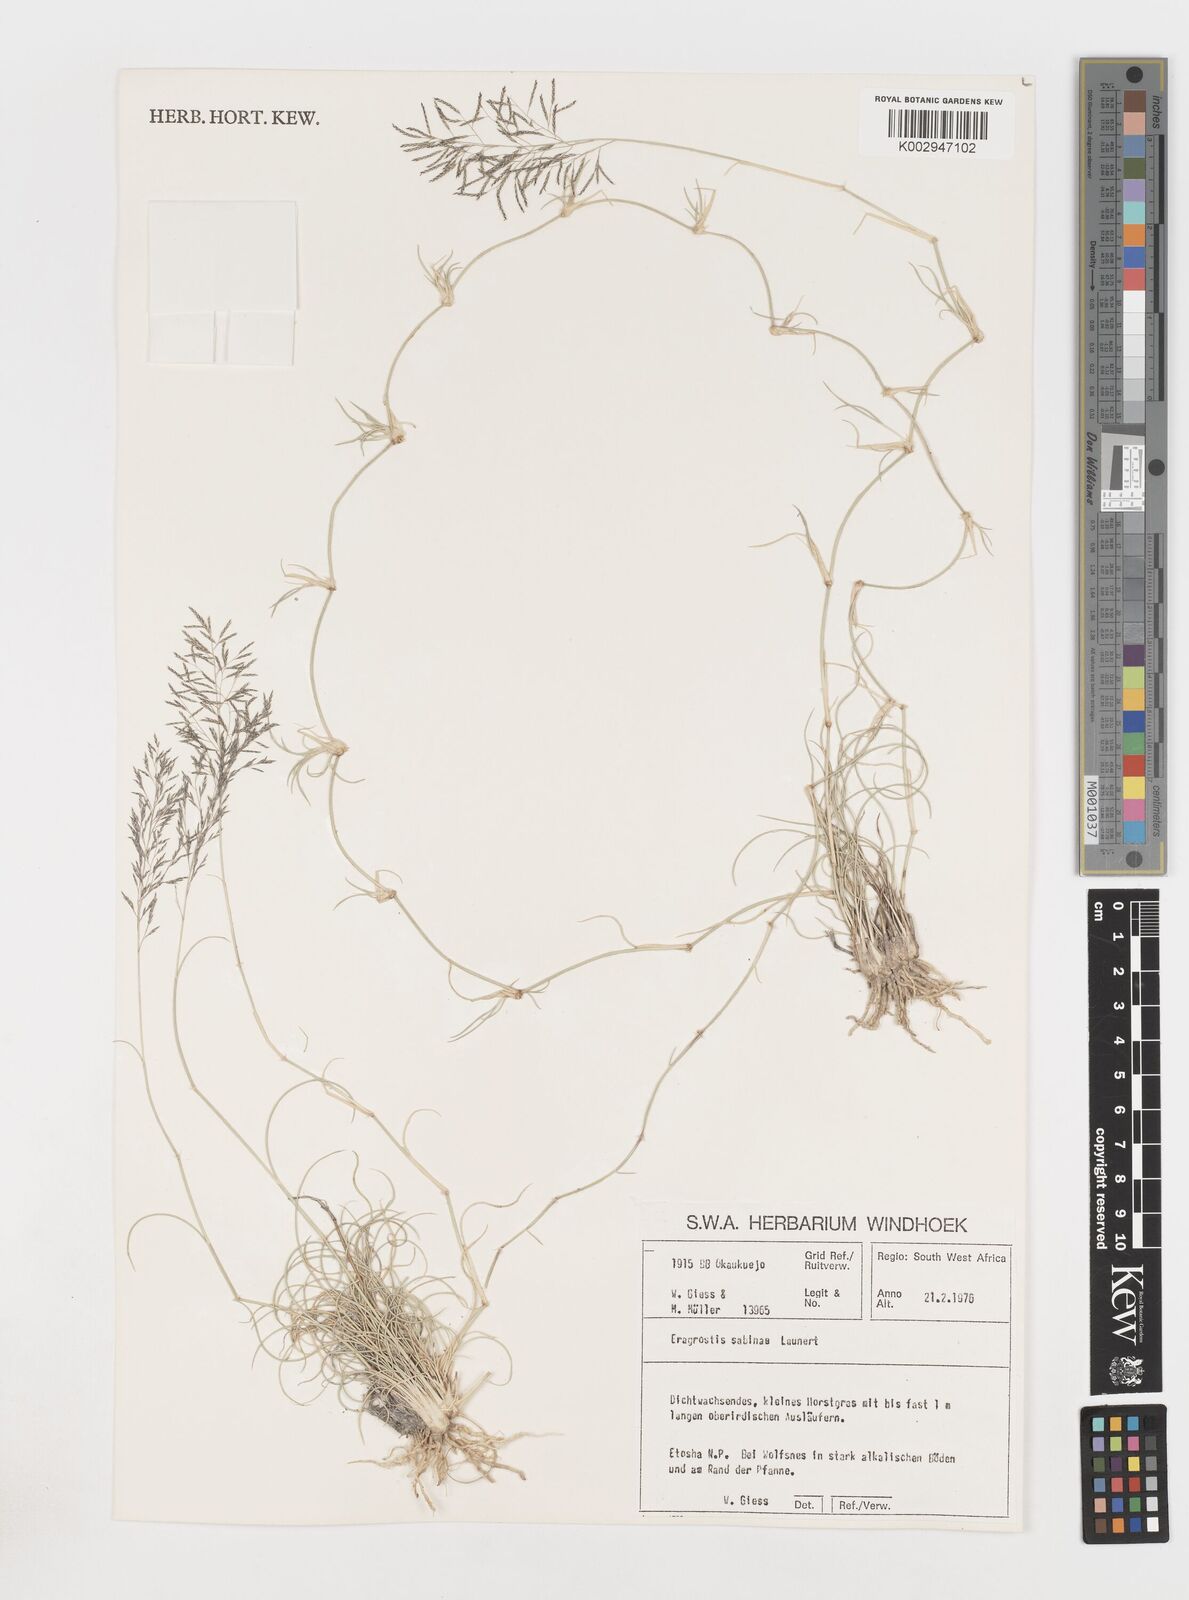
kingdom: Plantae
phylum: Tracheophyta
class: Liliopsida
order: Poales
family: Poaceae
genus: Eragrostis
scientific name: Eragrostis sabinae
